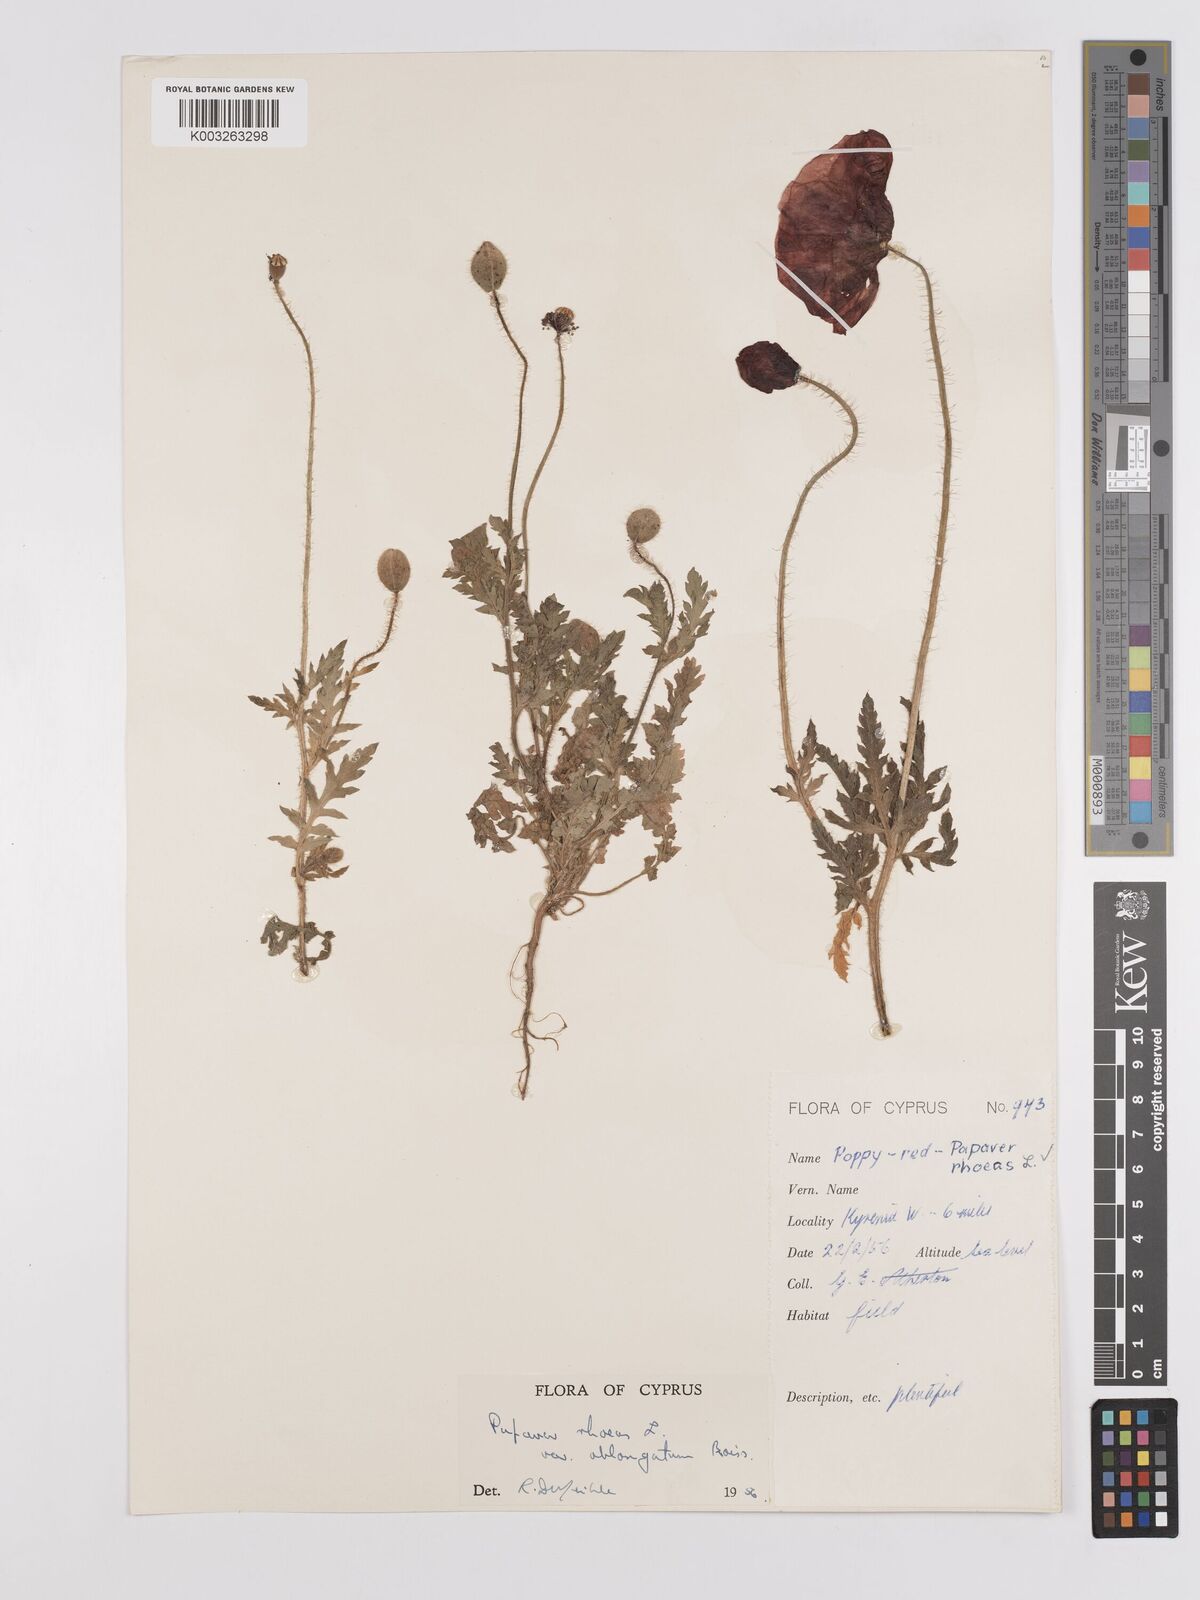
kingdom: Plantae
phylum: Tracheophyta
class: Magnoliopsida
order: Ranunculales
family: Papaveraceae
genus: Papaver
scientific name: Papaver rhoeas
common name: Corn poppy
